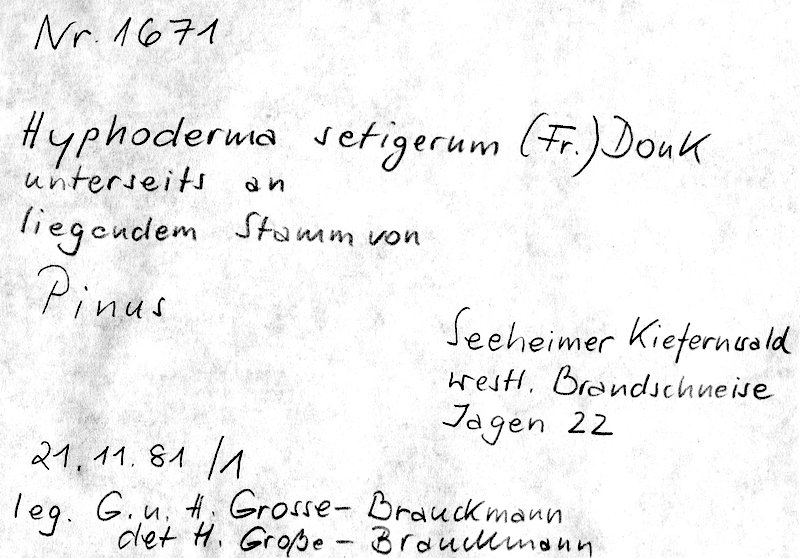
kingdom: Plantae
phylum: Tracheophyta
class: Pinopsida
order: Pinales
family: Pinaceae
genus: Pinus
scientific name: Pinus
